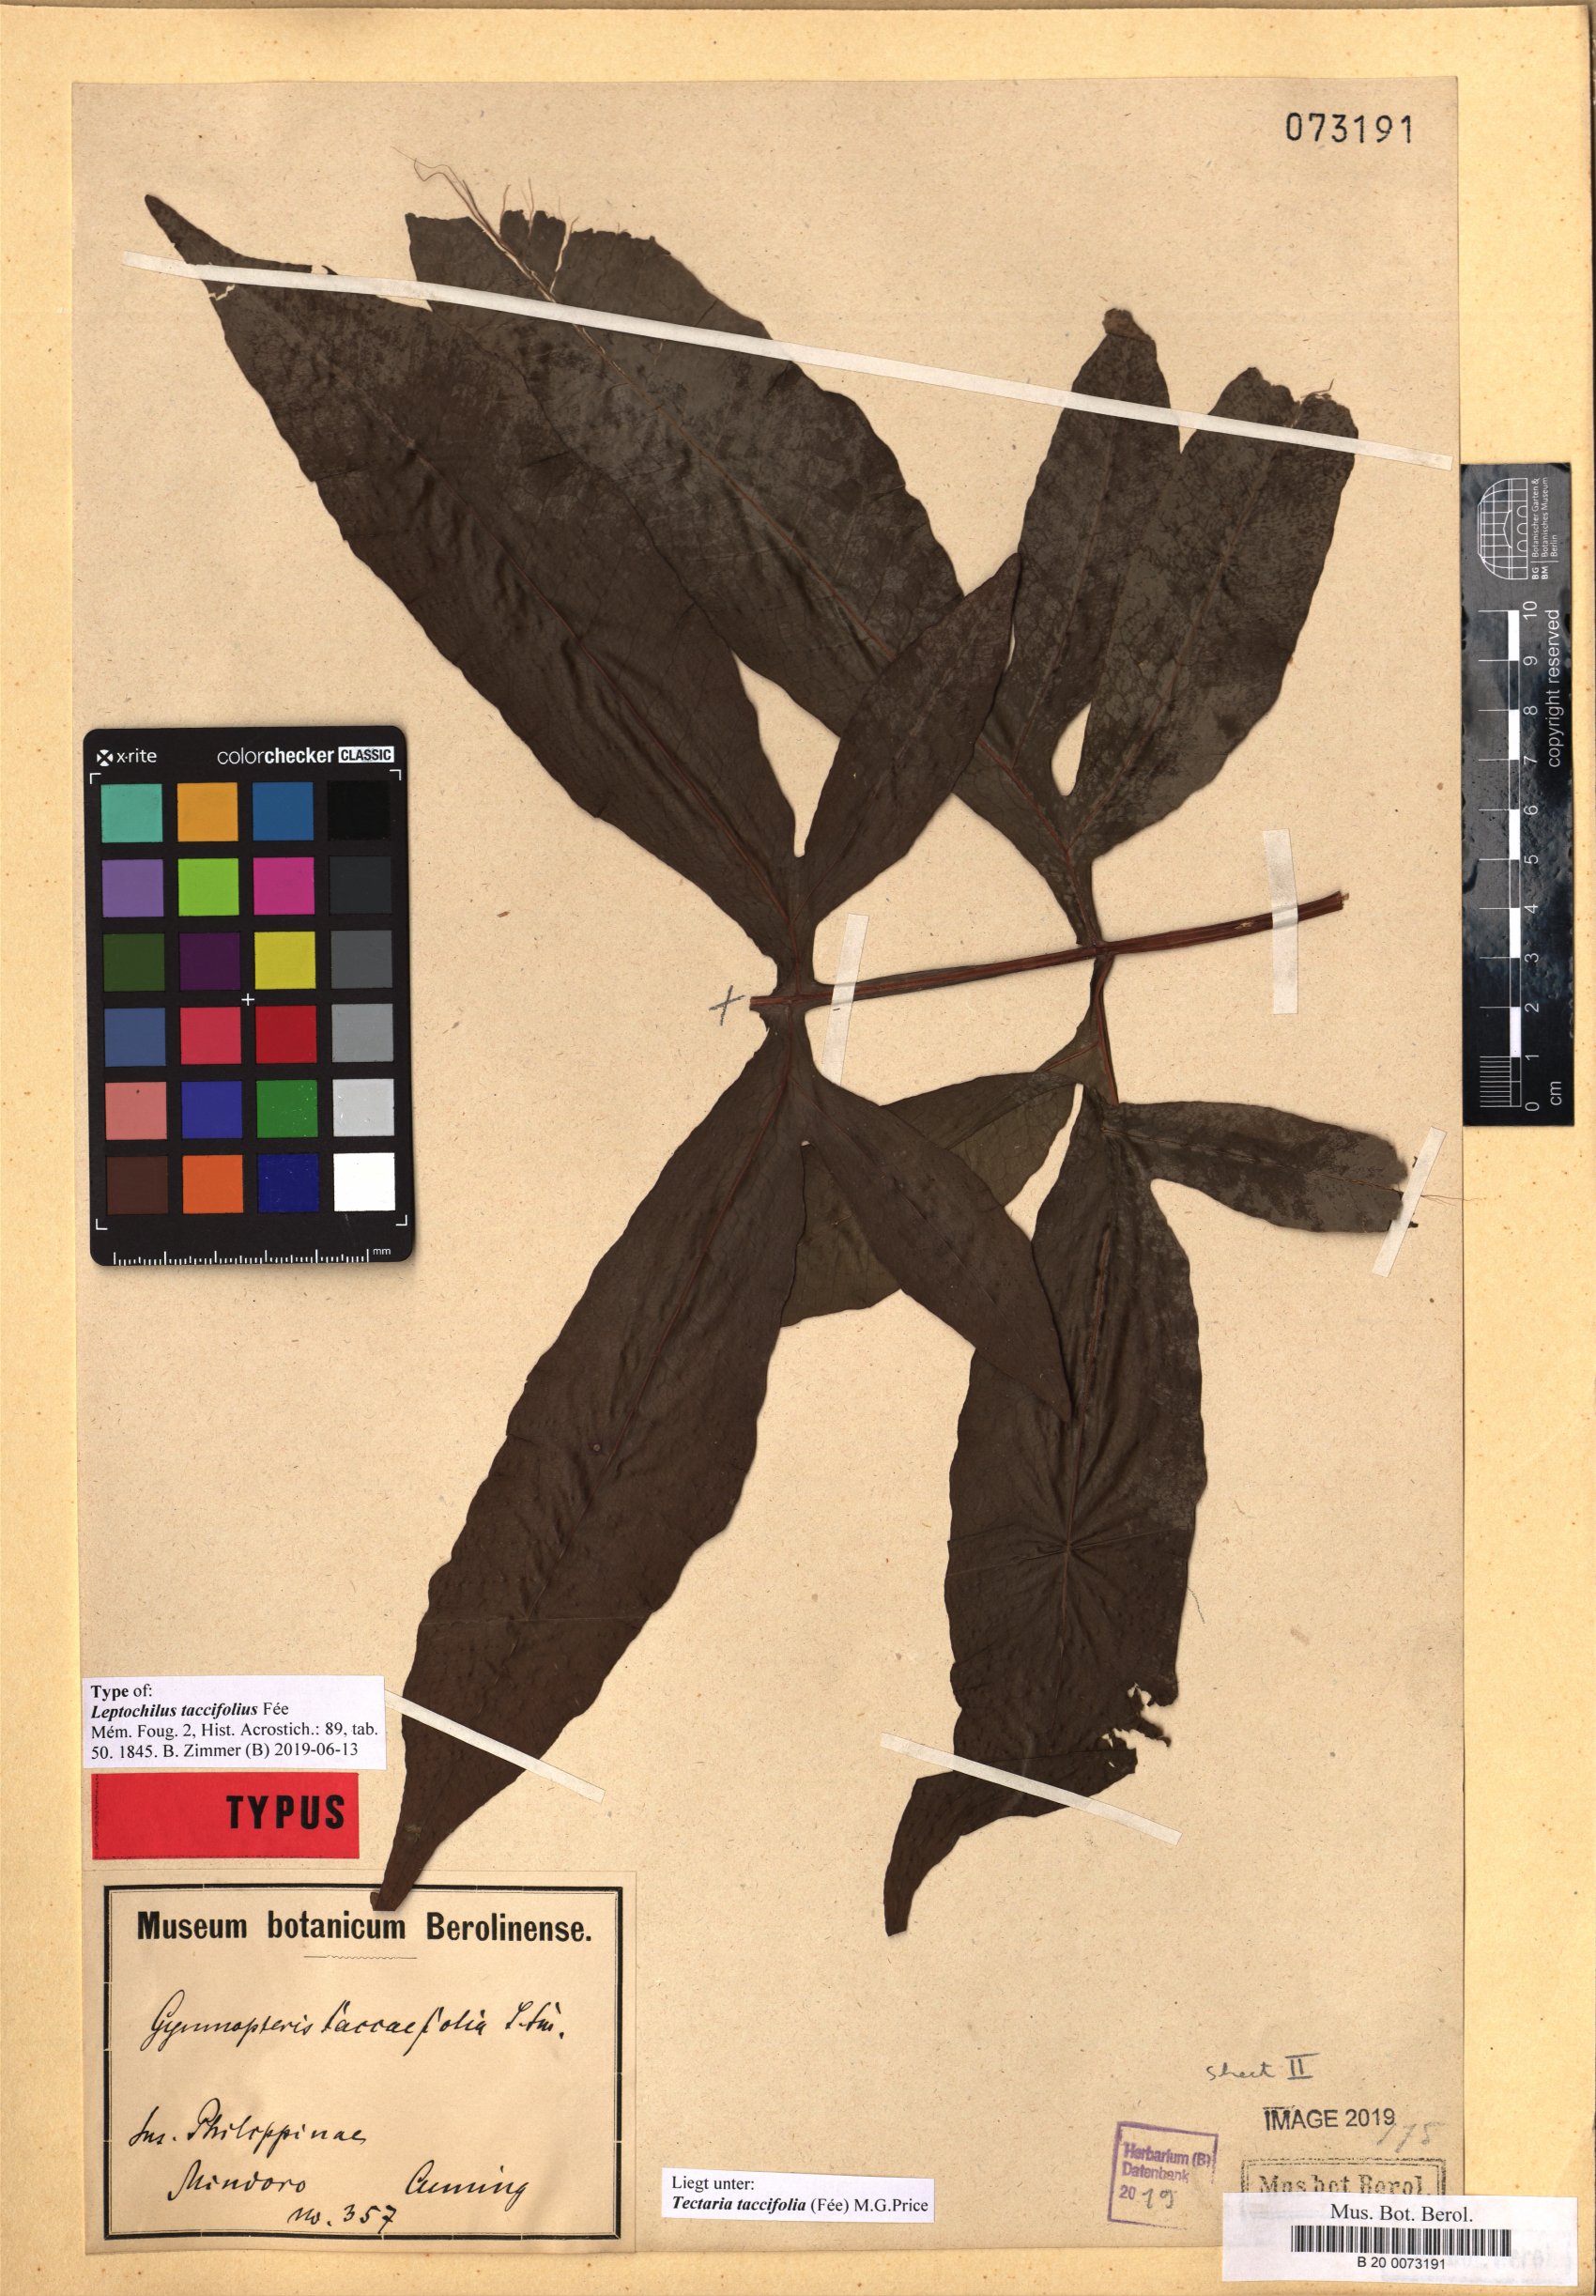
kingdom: Plantae
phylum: Tracheophyta
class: Polypodiopsida
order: Polypodiales
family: Tectariaceae
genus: Tectaria
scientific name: Tectaria taccifolia
